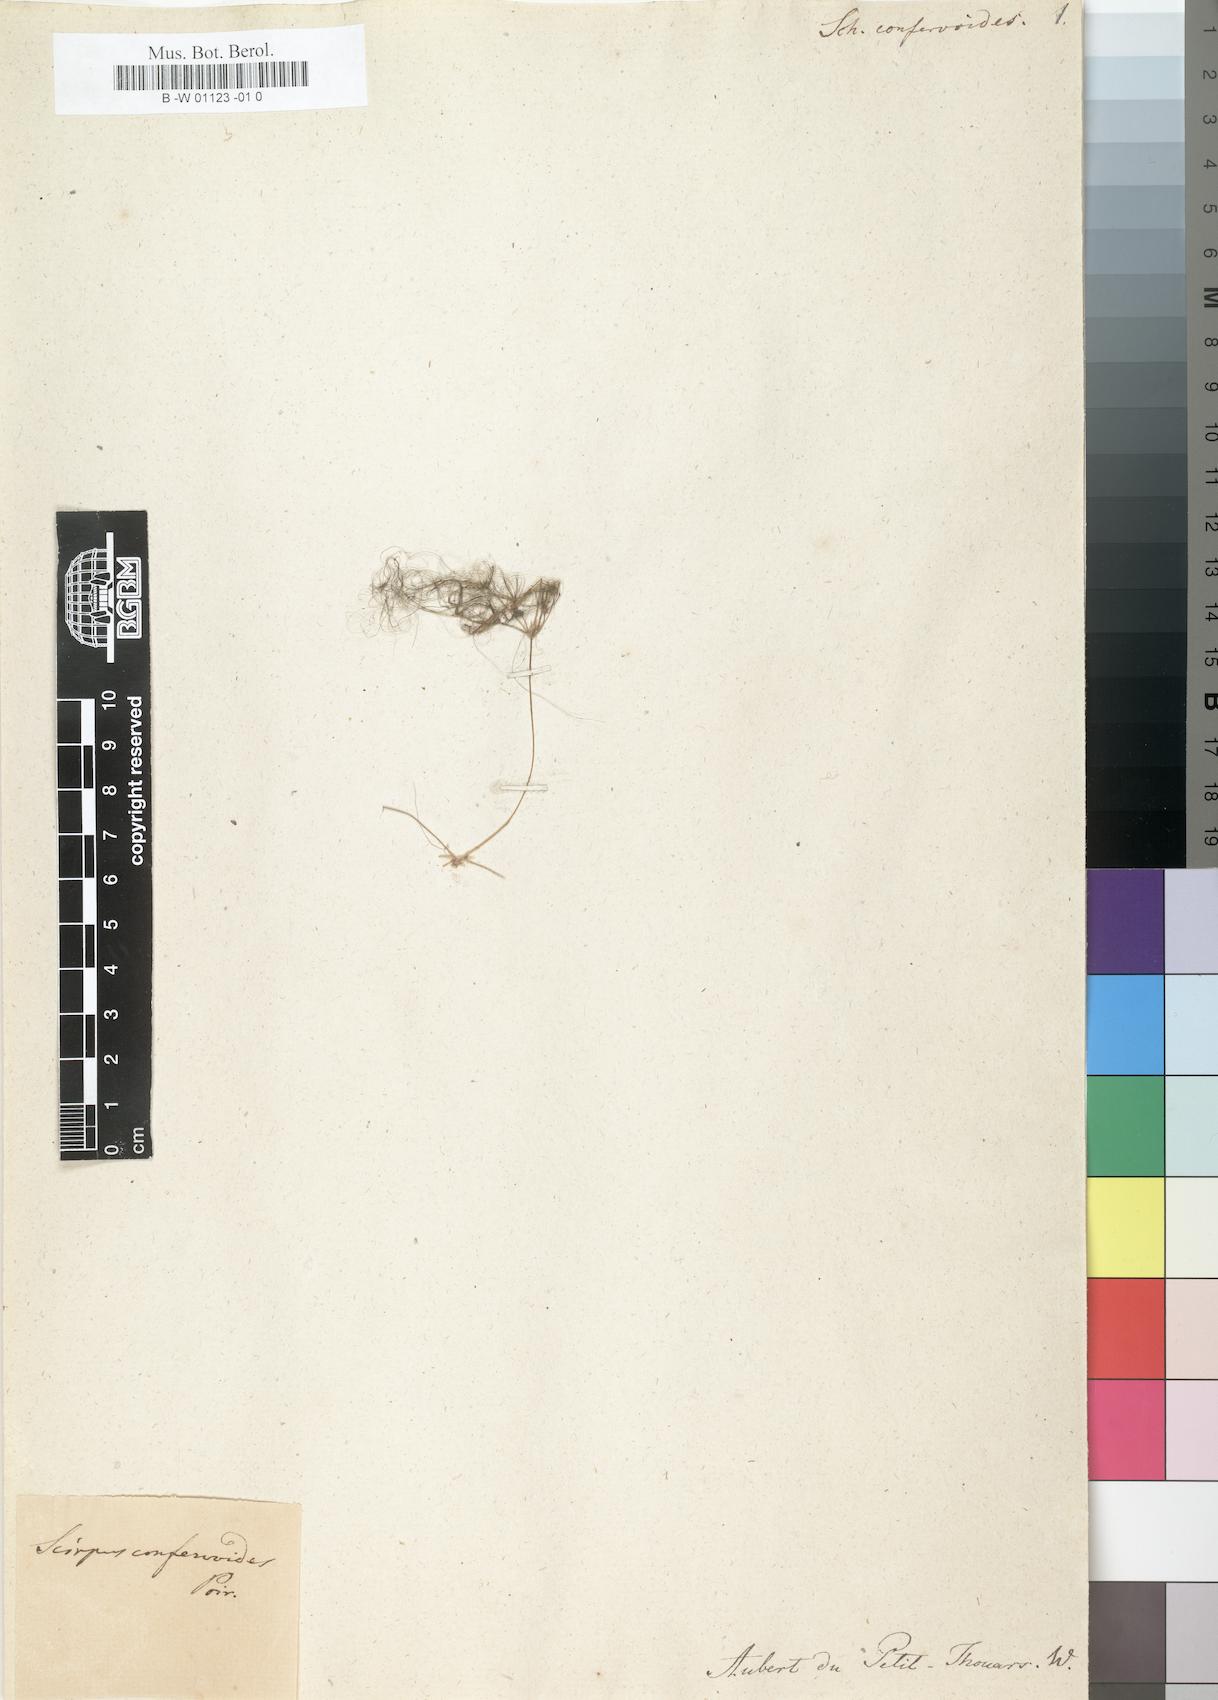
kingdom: Plantae
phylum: Tracheophyta
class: Liliopsida
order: Poales
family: Cyperaceae
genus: Eleocharis
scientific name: Eleocharis confervoides
